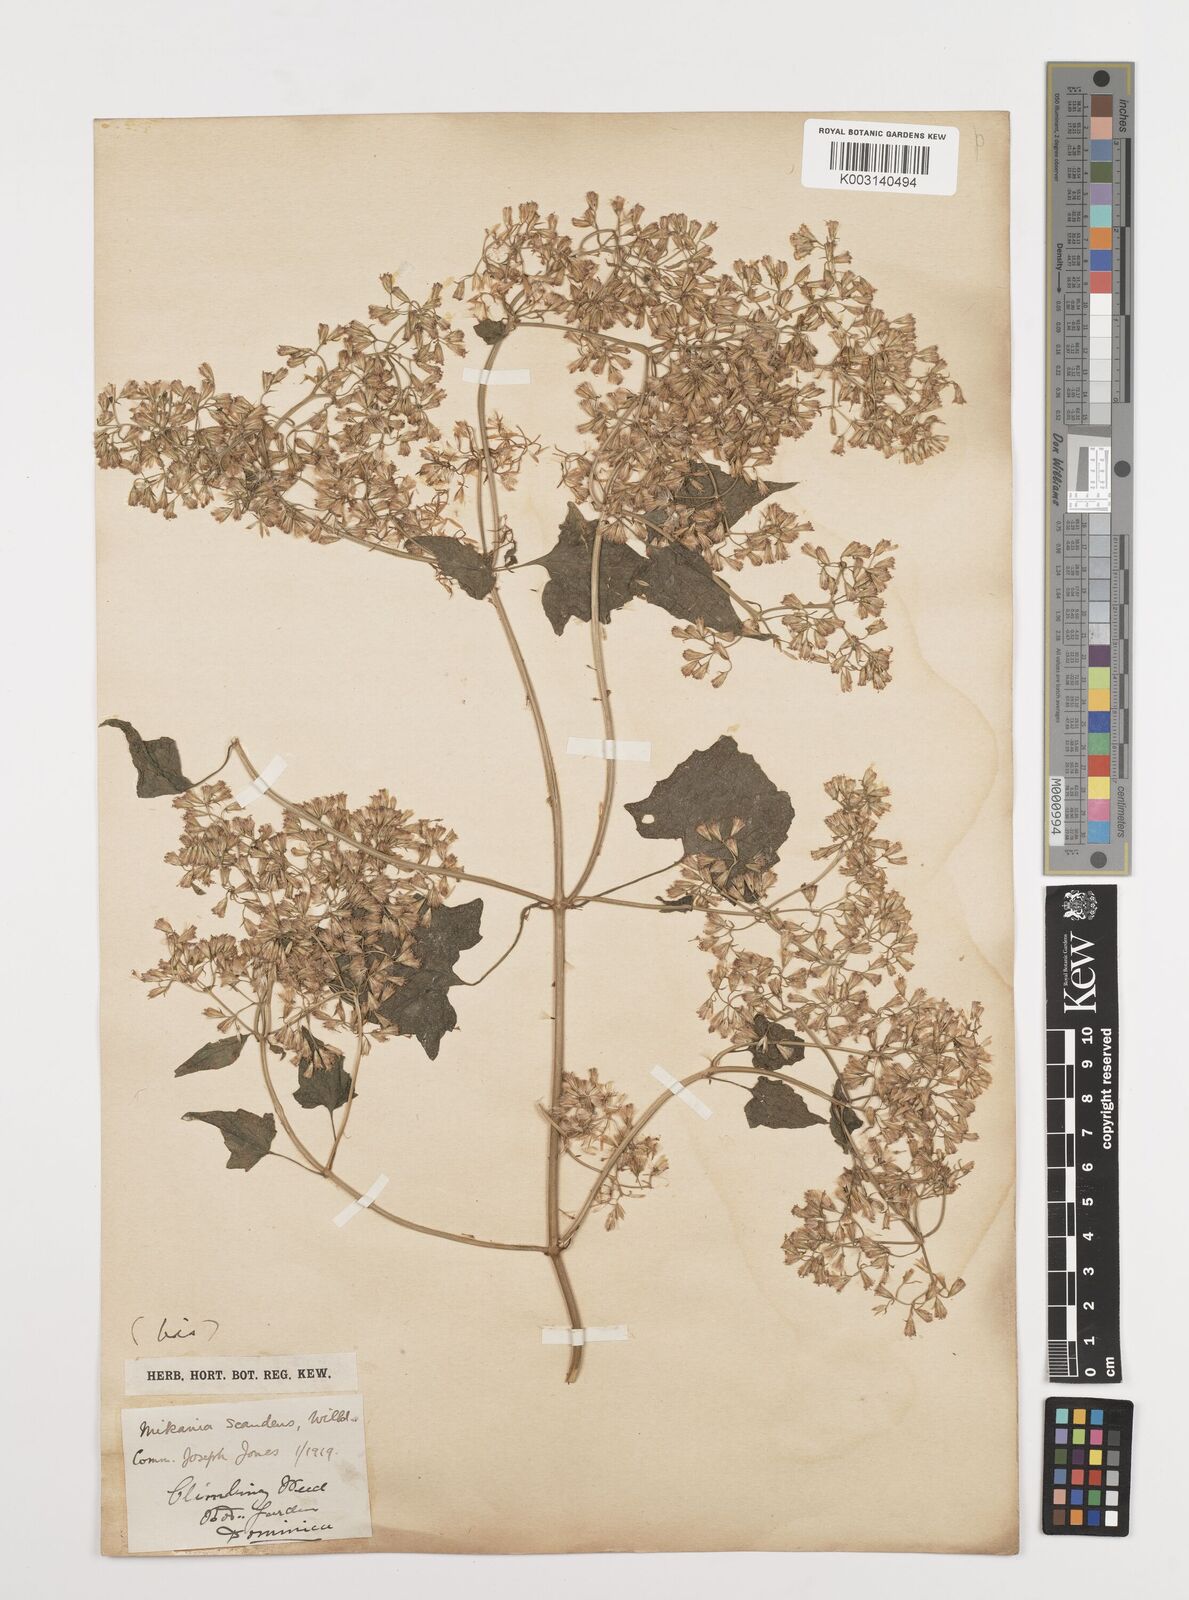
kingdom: Plantae
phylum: Tracheophyta
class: Magnoliopsida
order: Asterales
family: Asteraceae
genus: Mikania
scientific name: Mikania micrantha
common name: Mile-a-minute
